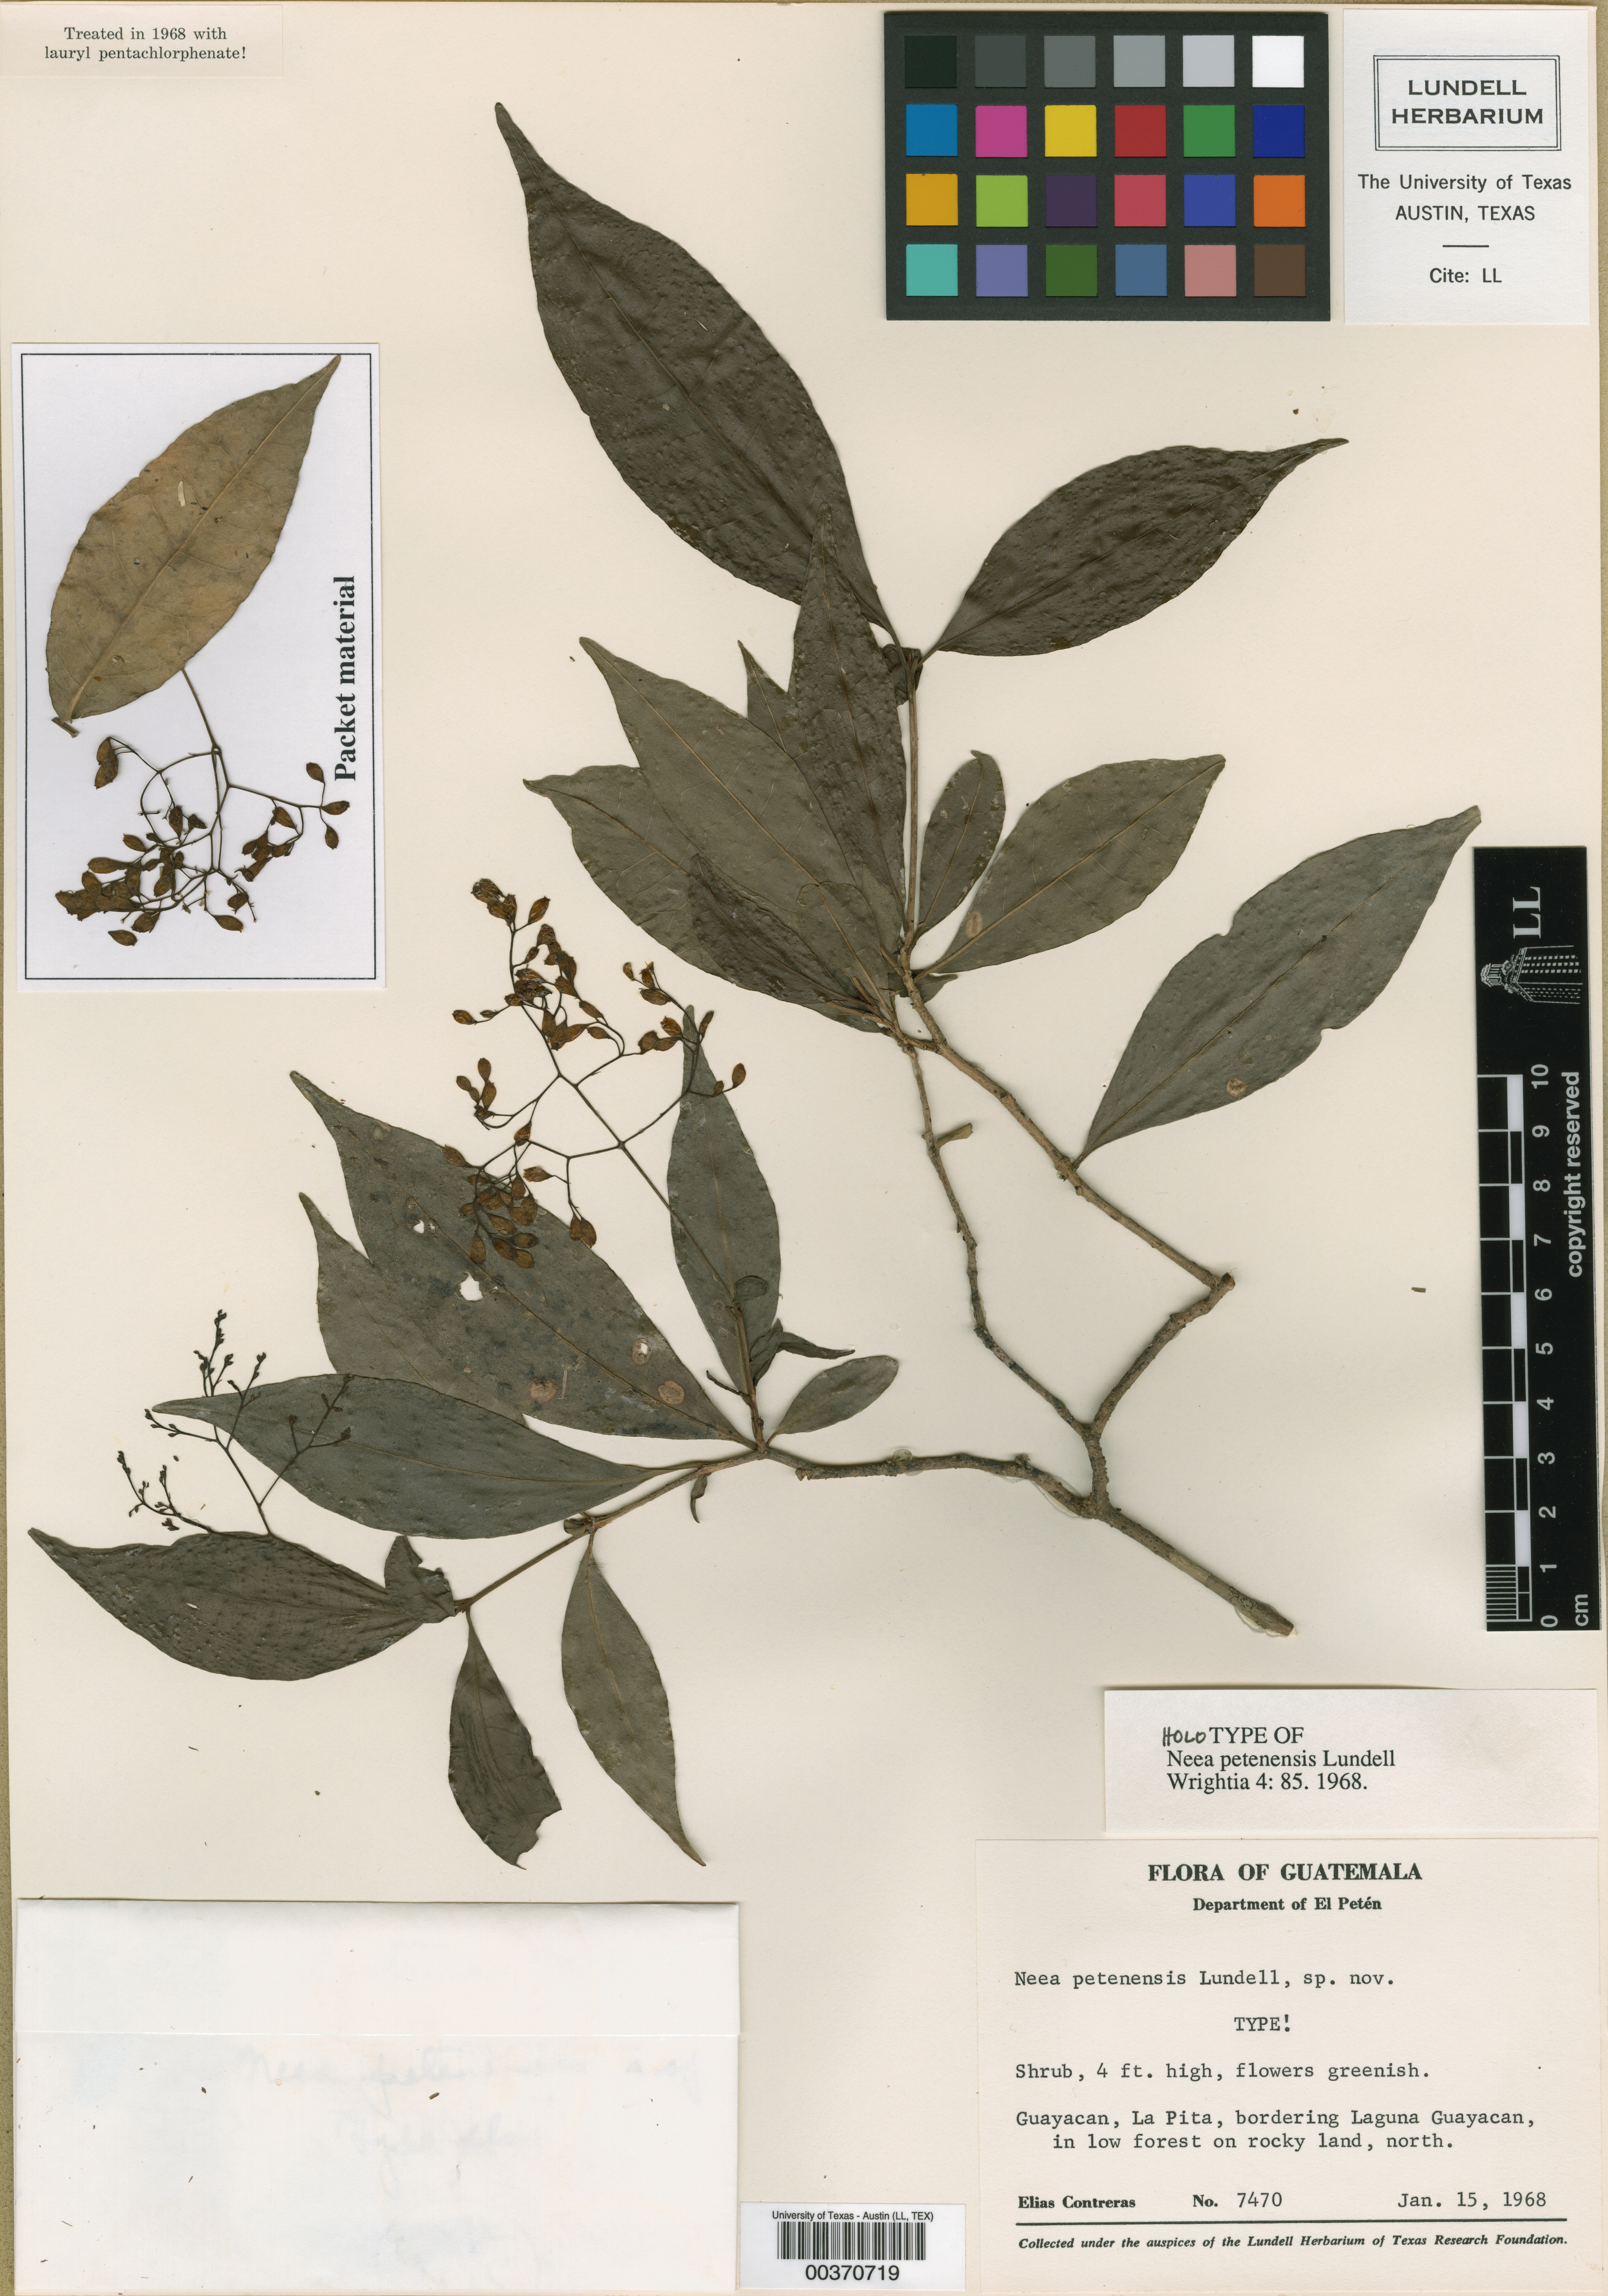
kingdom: Plantae
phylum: Tracheophyta
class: Magnoliopsida
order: Caryophyllales
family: Nyctaginaceae
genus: Neea
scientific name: Neea petenensis
